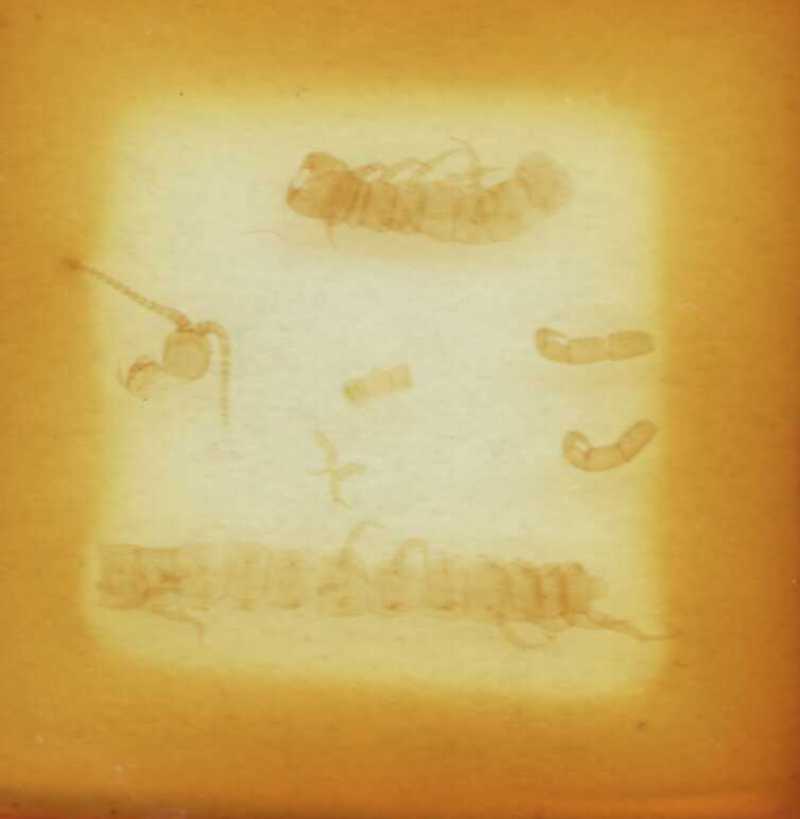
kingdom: Animalia
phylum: Arthropoda
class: Chilopoda
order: Scolopendromorpha
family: Cryptopidae
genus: Cryptops
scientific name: Cryptops lobatus
